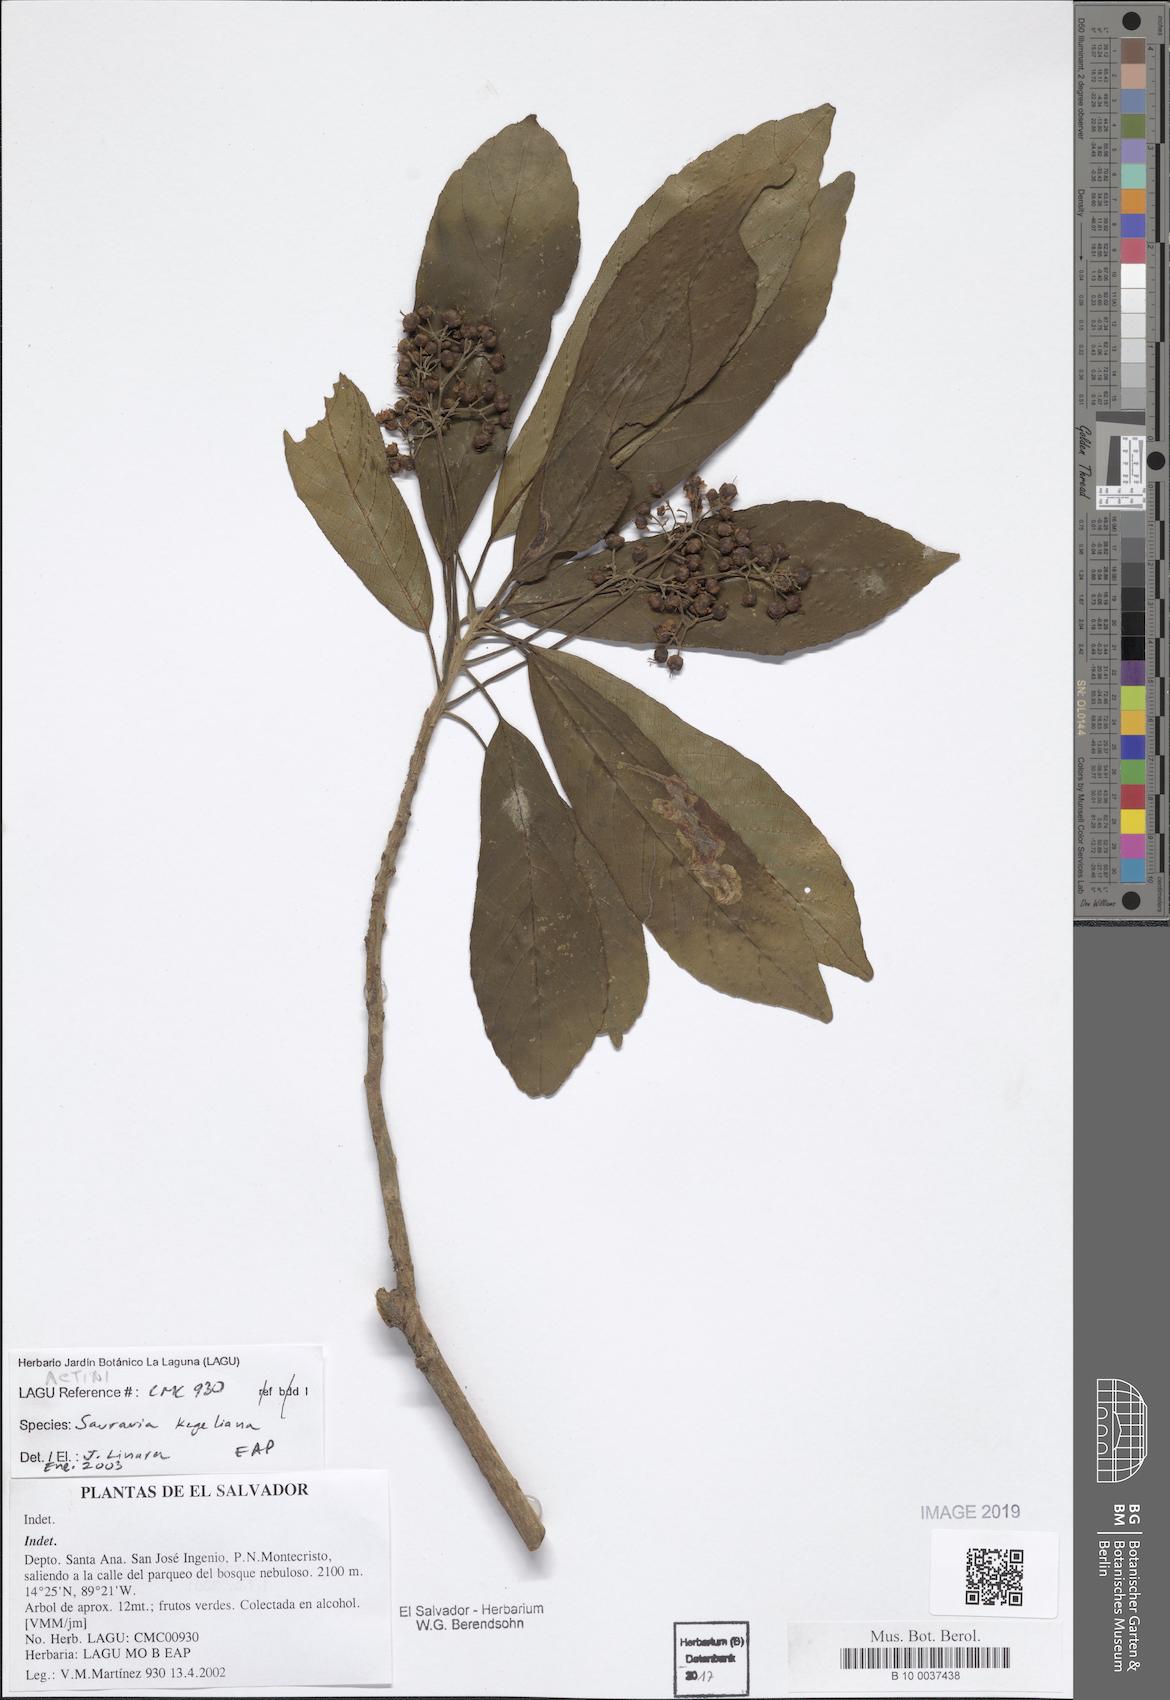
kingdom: Plantae
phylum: Tracheophyta
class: Magnoliopsida
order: Ericales
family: Actinidiaceae
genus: Saurauia
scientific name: Saurauia kegeliana
